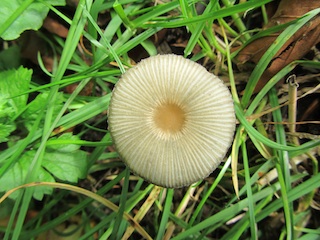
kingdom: Fungi
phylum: Basidiomycota
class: Agaricomycetes
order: Agaricales
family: Psathyrellaceae
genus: Parasola
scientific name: Parasola plicatilis
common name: plæne-hjulhat
